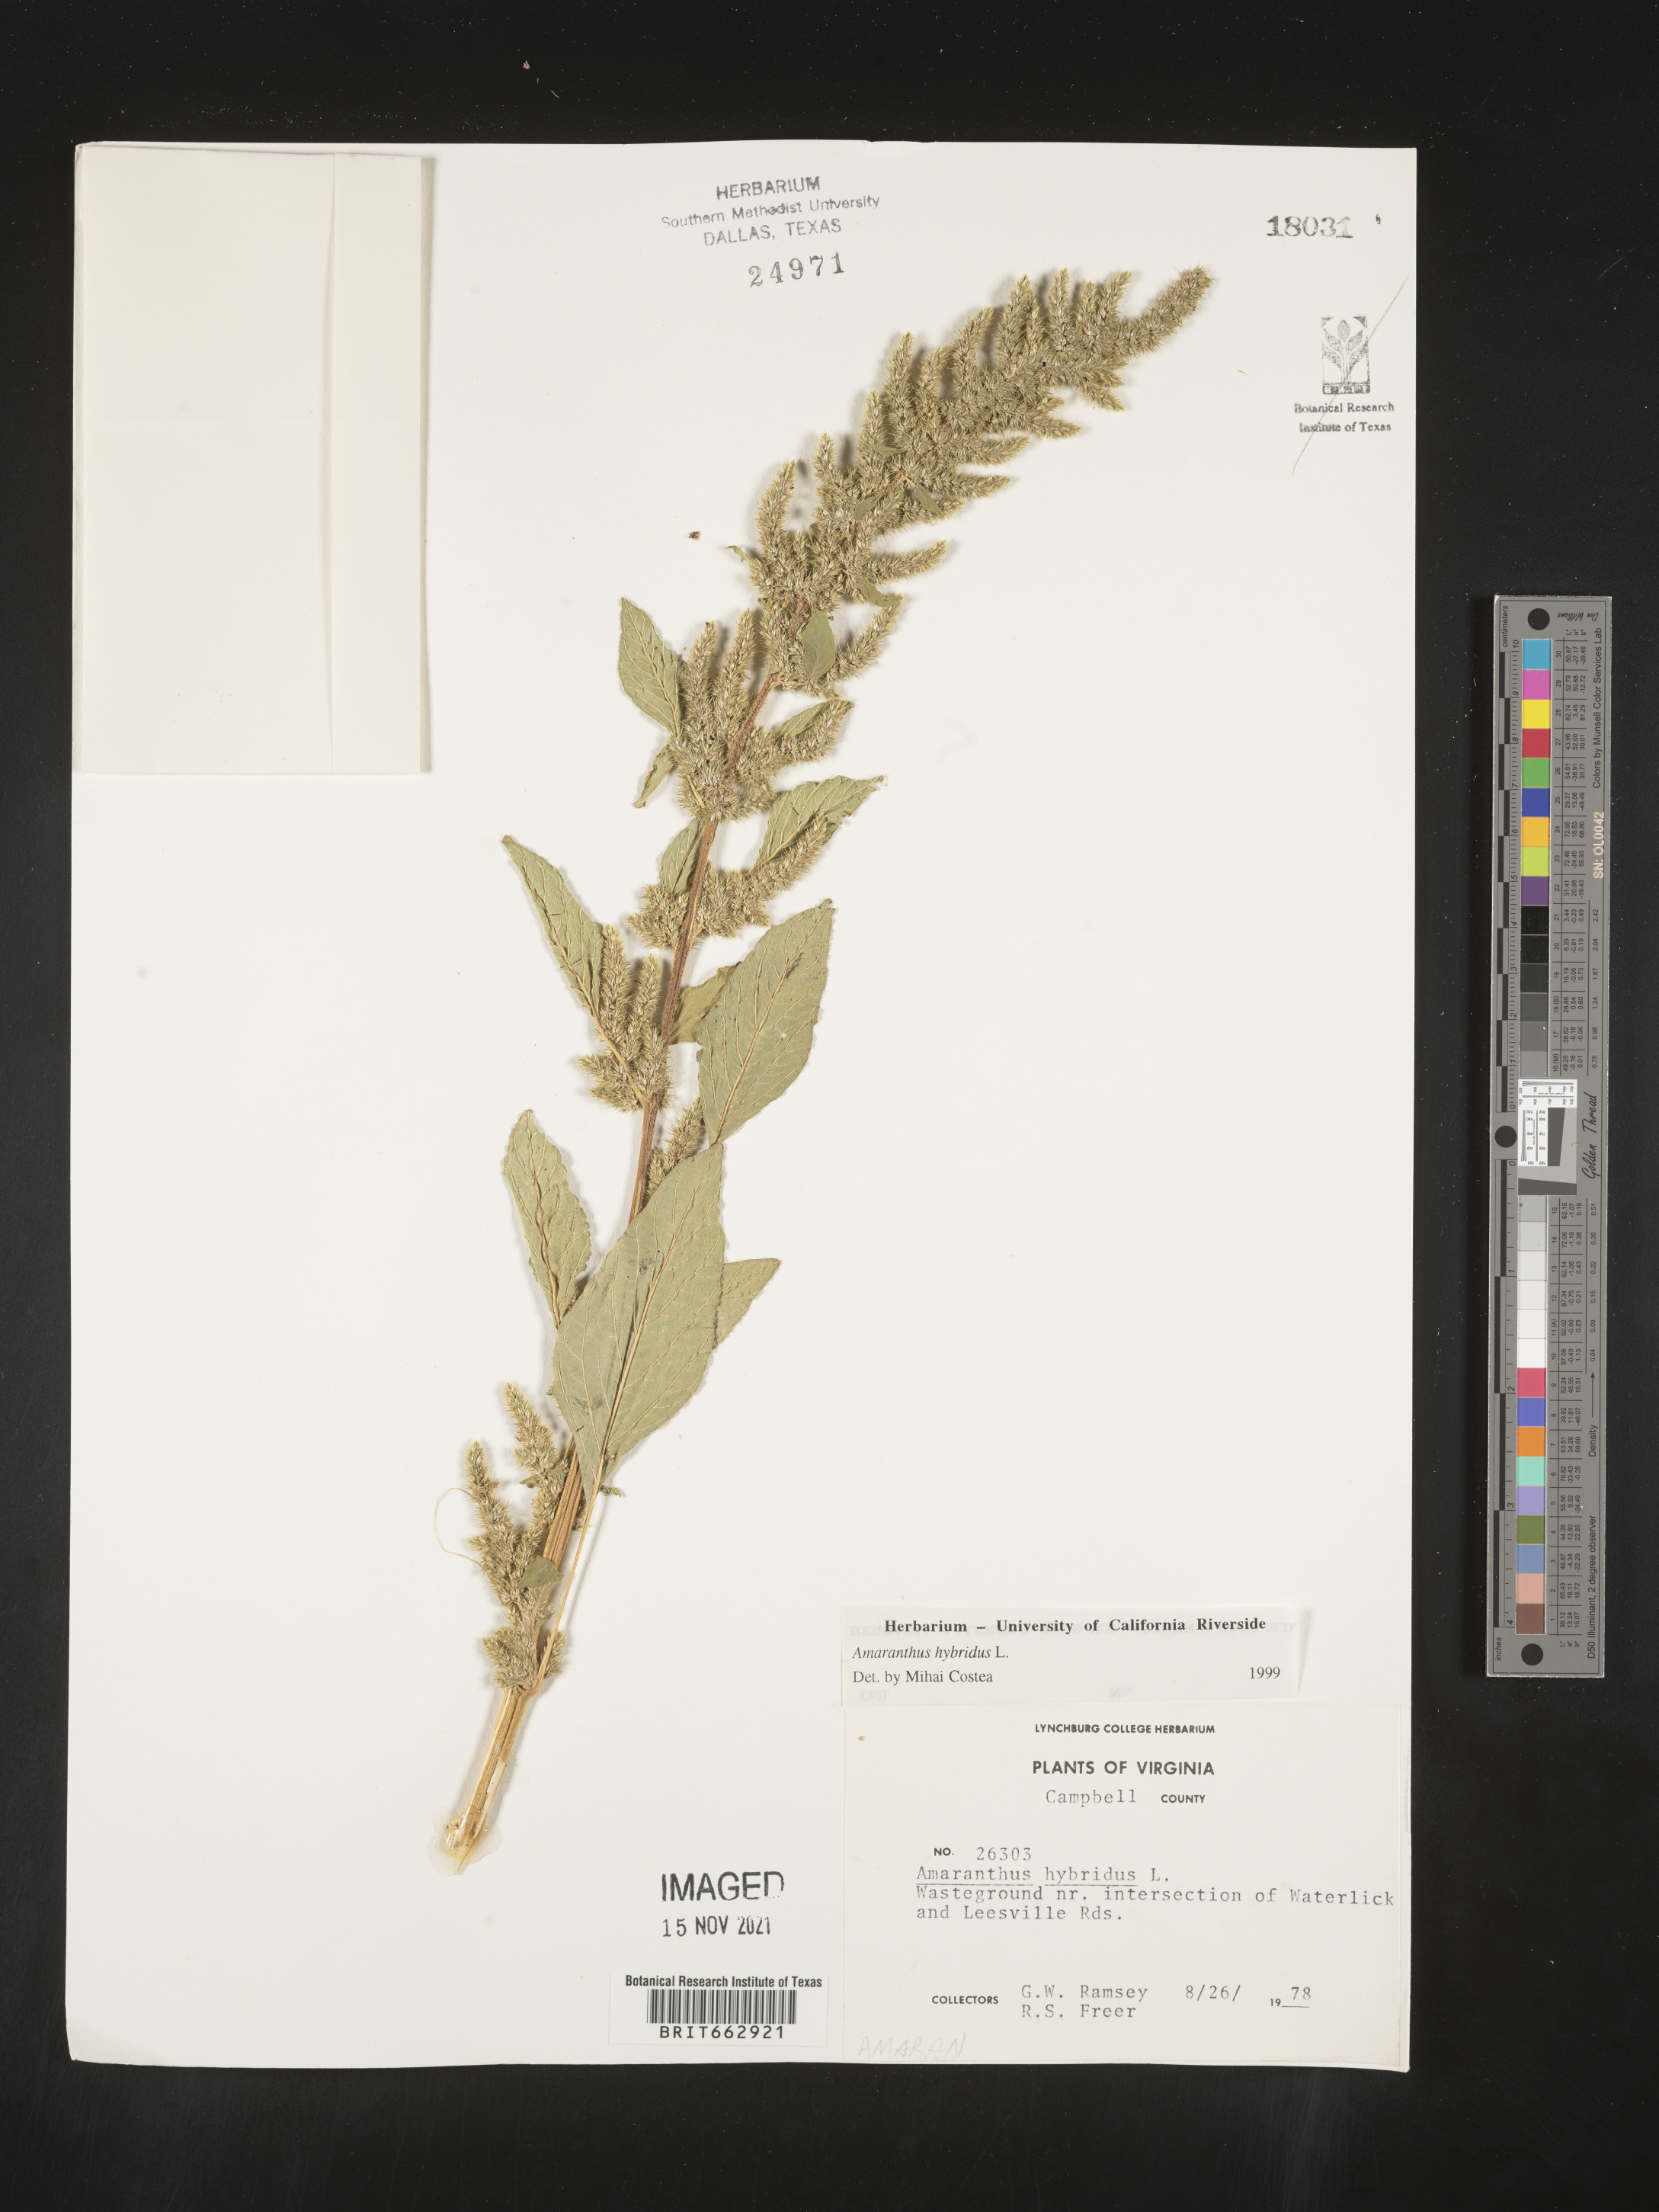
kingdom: Plantae
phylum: Tracheophyta
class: Magnoliopsida
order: Caryophyllales
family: Amaranthaceae
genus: Amaranthus
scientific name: Amaranthus hybridus
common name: Green amaranth
